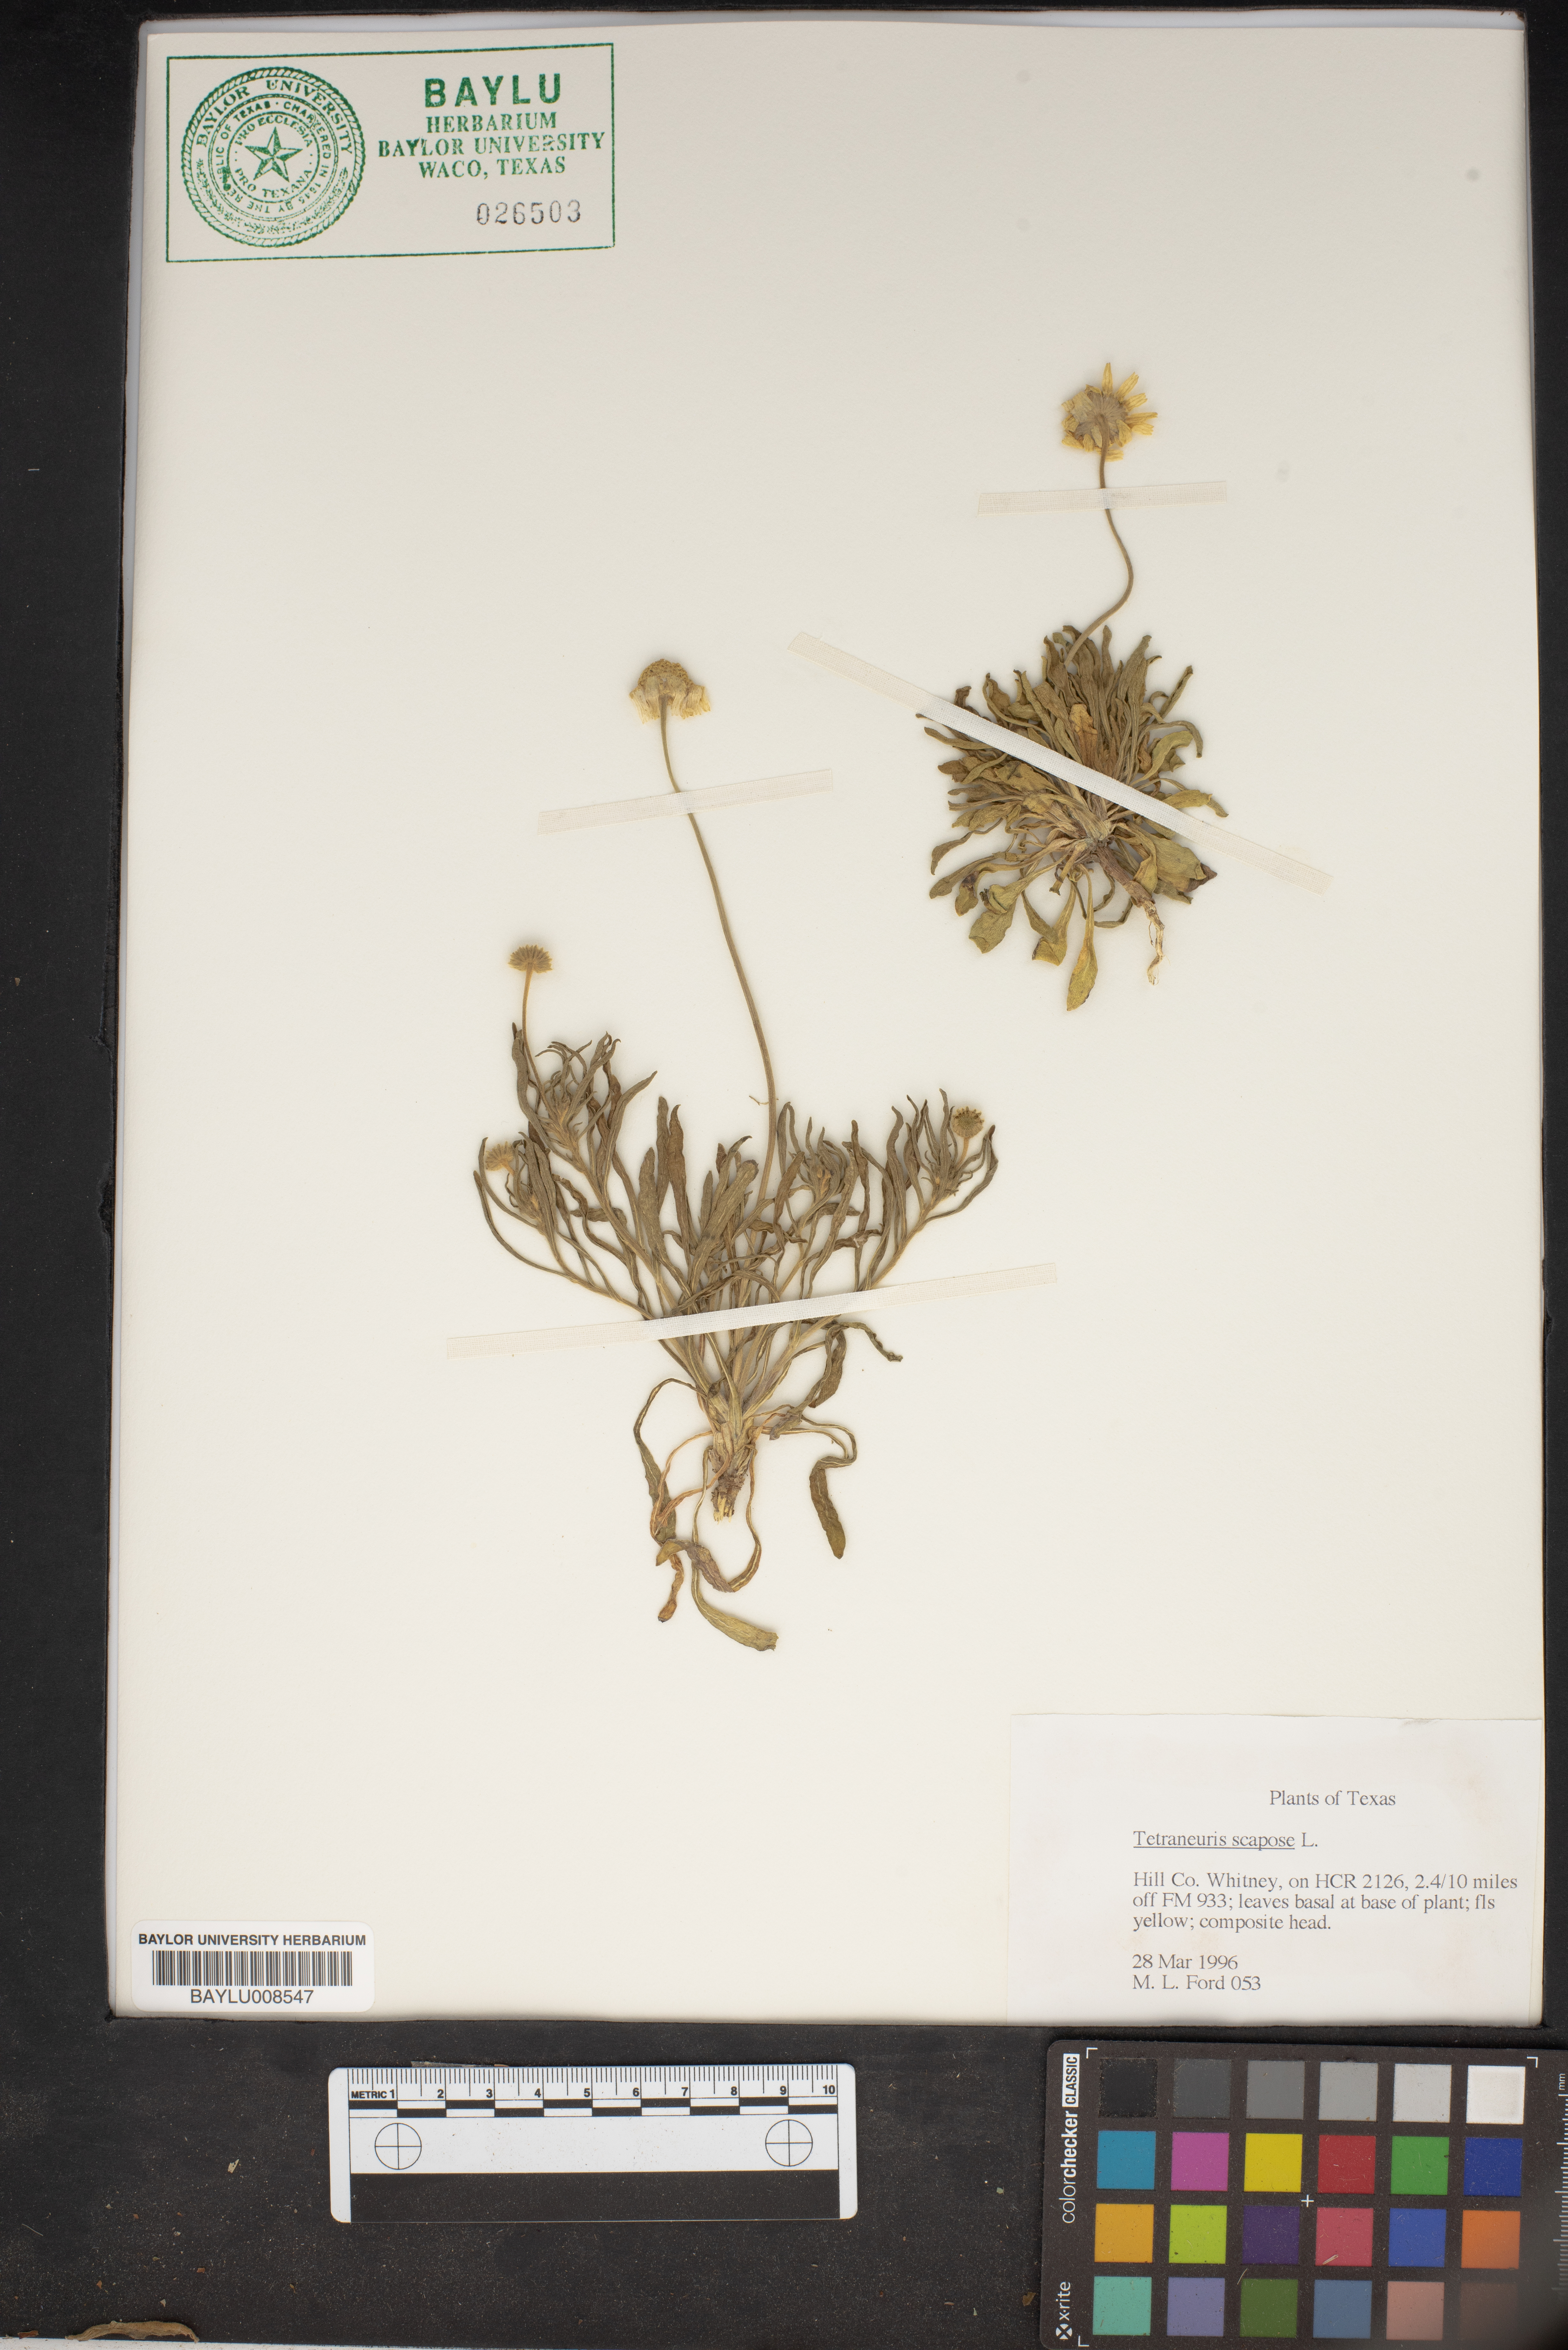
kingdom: Plantae
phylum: Tracheophyta
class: Magnoliopsida
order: Asterales
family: Asteraceae
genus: Tetraneuris
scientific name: Tetraneuris scaposa
